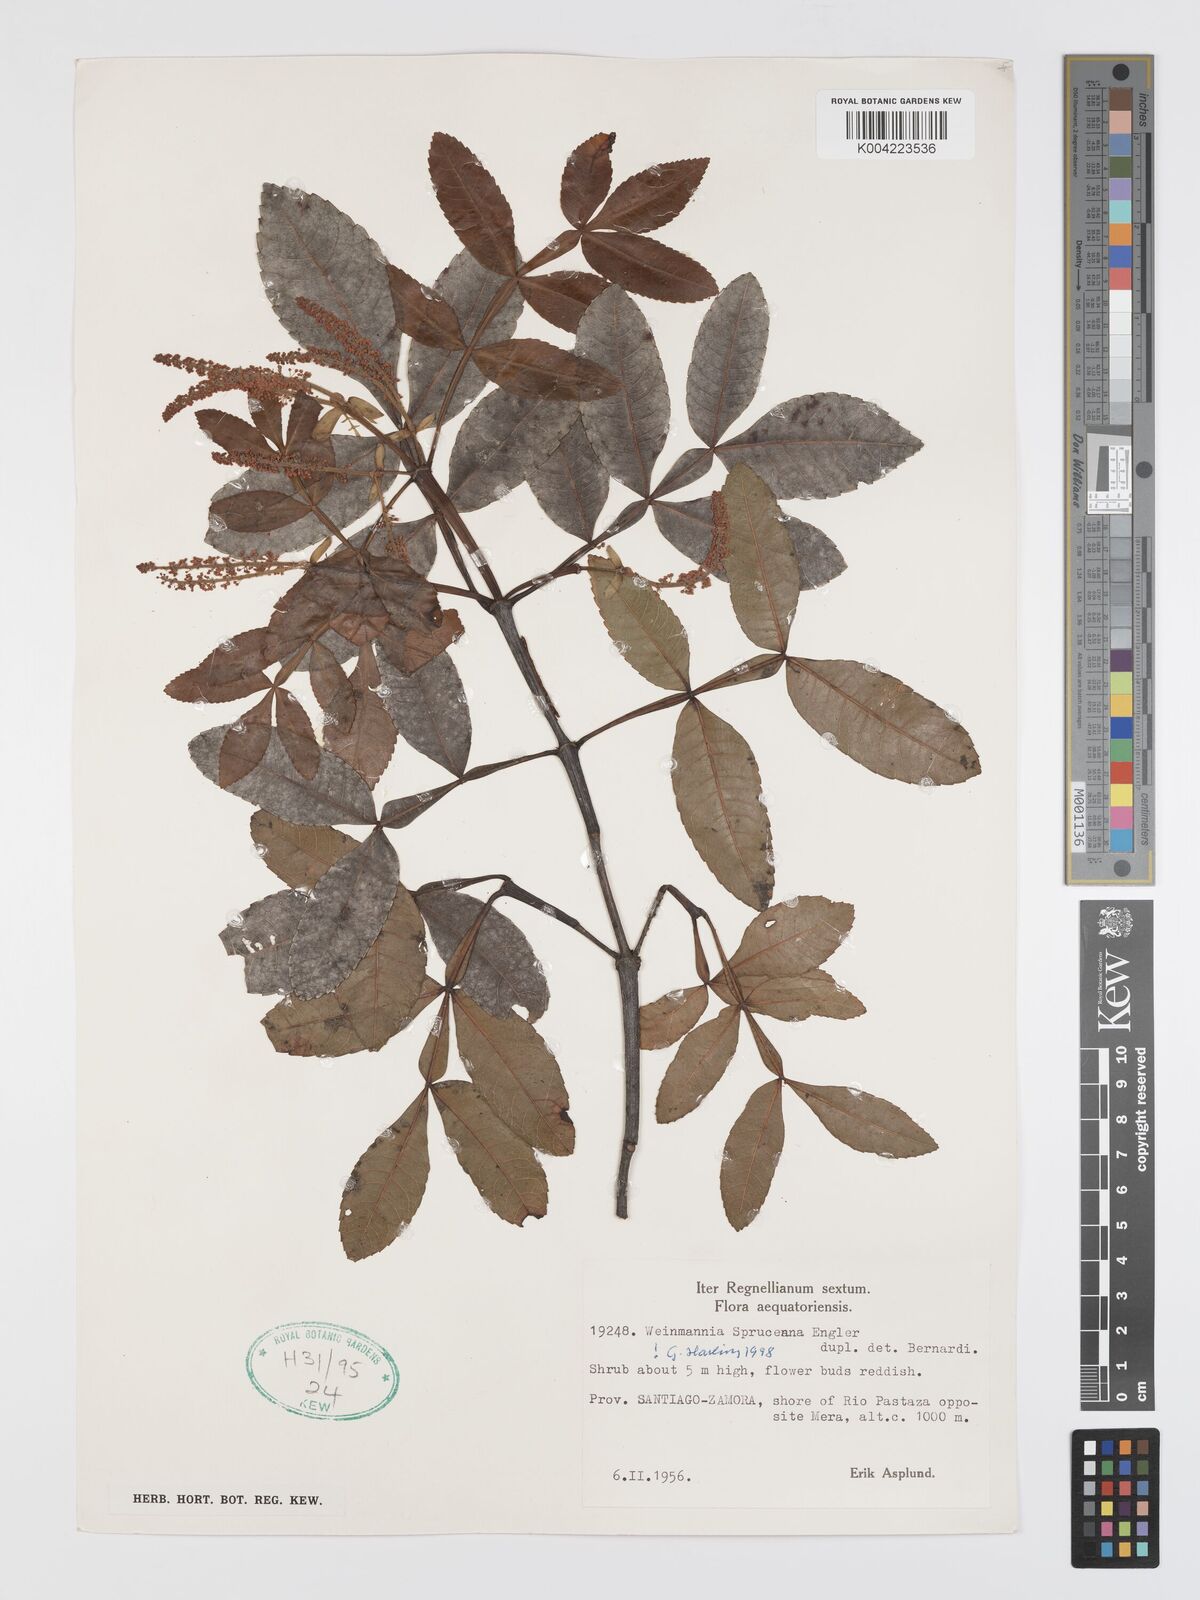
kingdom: Plantae
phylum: Tracheophyta
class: Magnoliopsida
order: Oxalidales
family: Cunoniaceae
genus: Weinmannia
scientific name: Weinmannia spruceana
